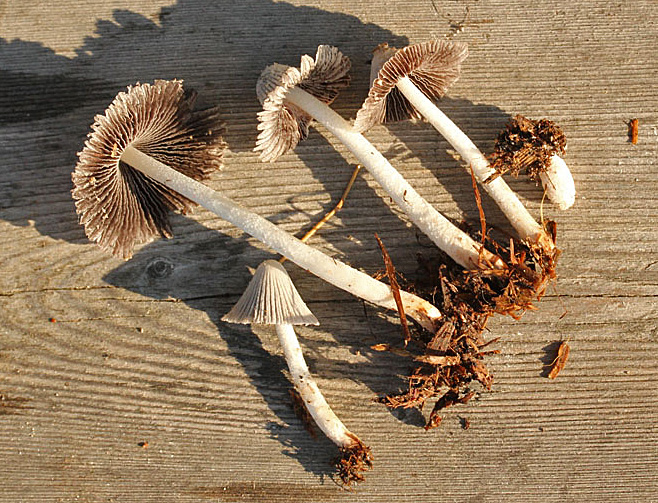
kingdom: Fungi
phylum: Basidiomycota
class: Agaricomycetes
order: Agaricales
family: Psathyrellaceae
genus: Coprinopsis
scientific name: Coprinopsis cothurnata
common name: rustfodet blækhat
